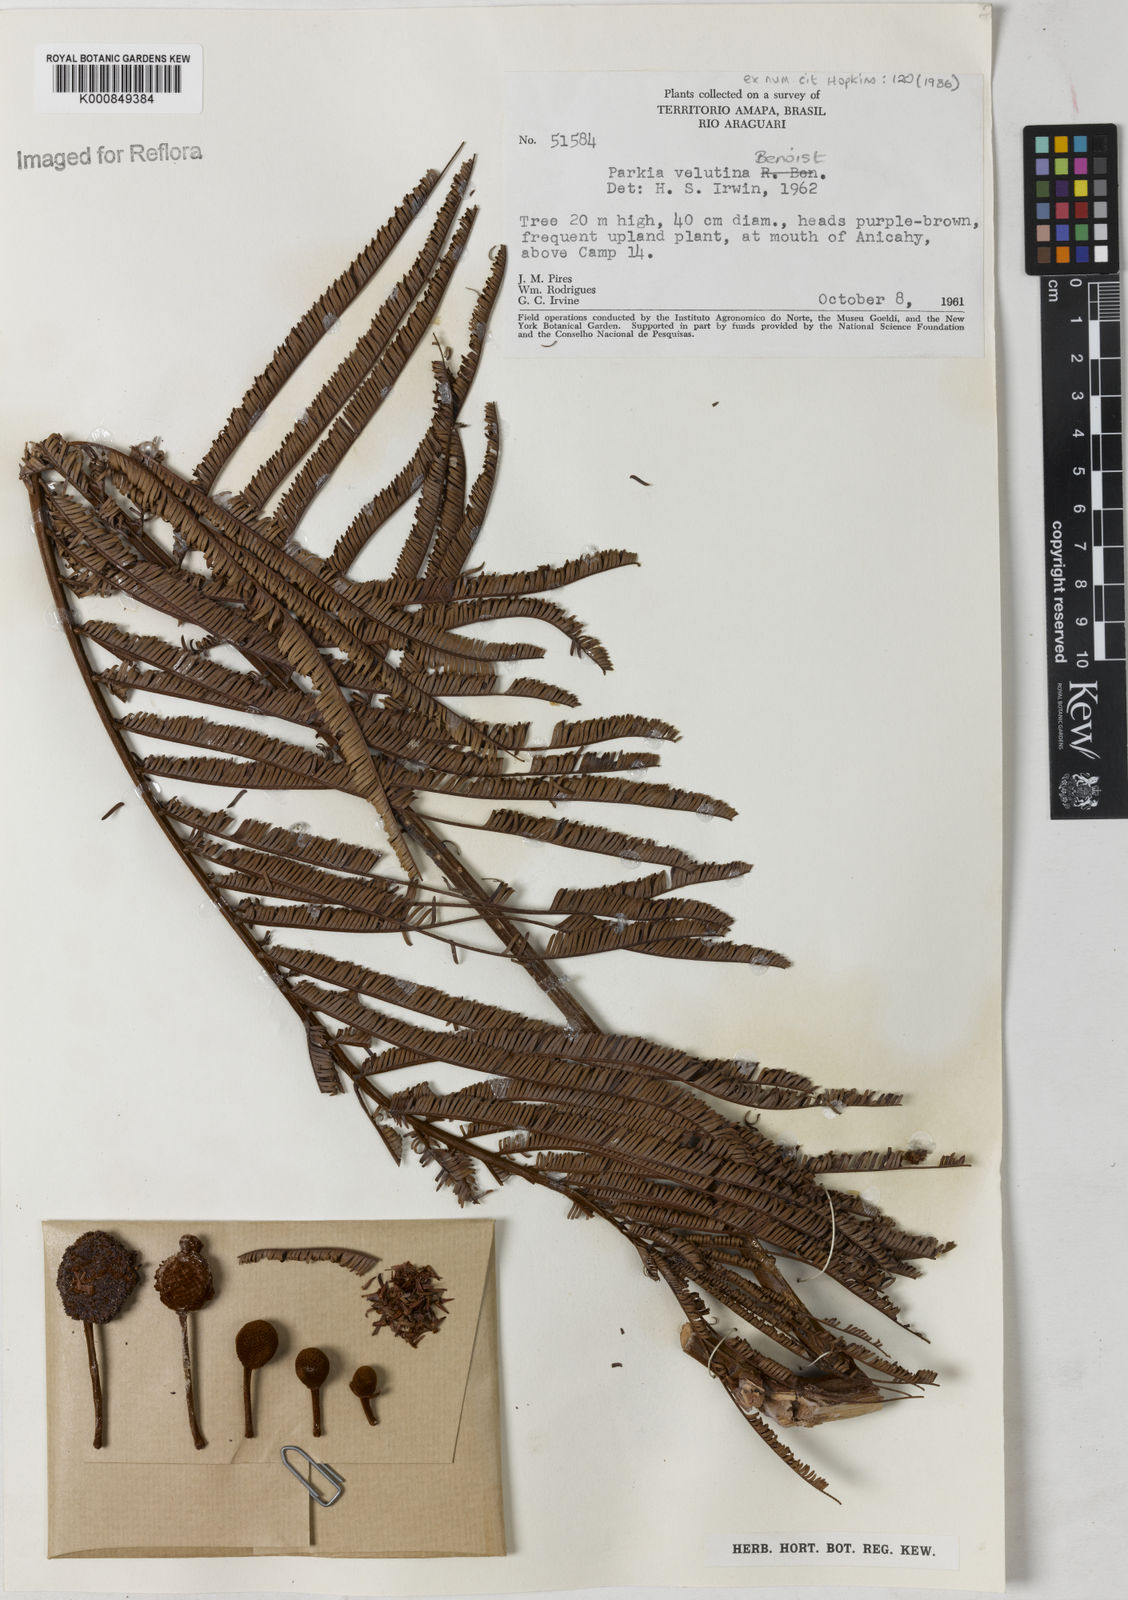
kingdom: Plantae
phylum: Tracheophyta
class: Magnoliopsida
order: Fabales
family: Fabaceae
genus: Parkia
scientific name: Parkia velutina
